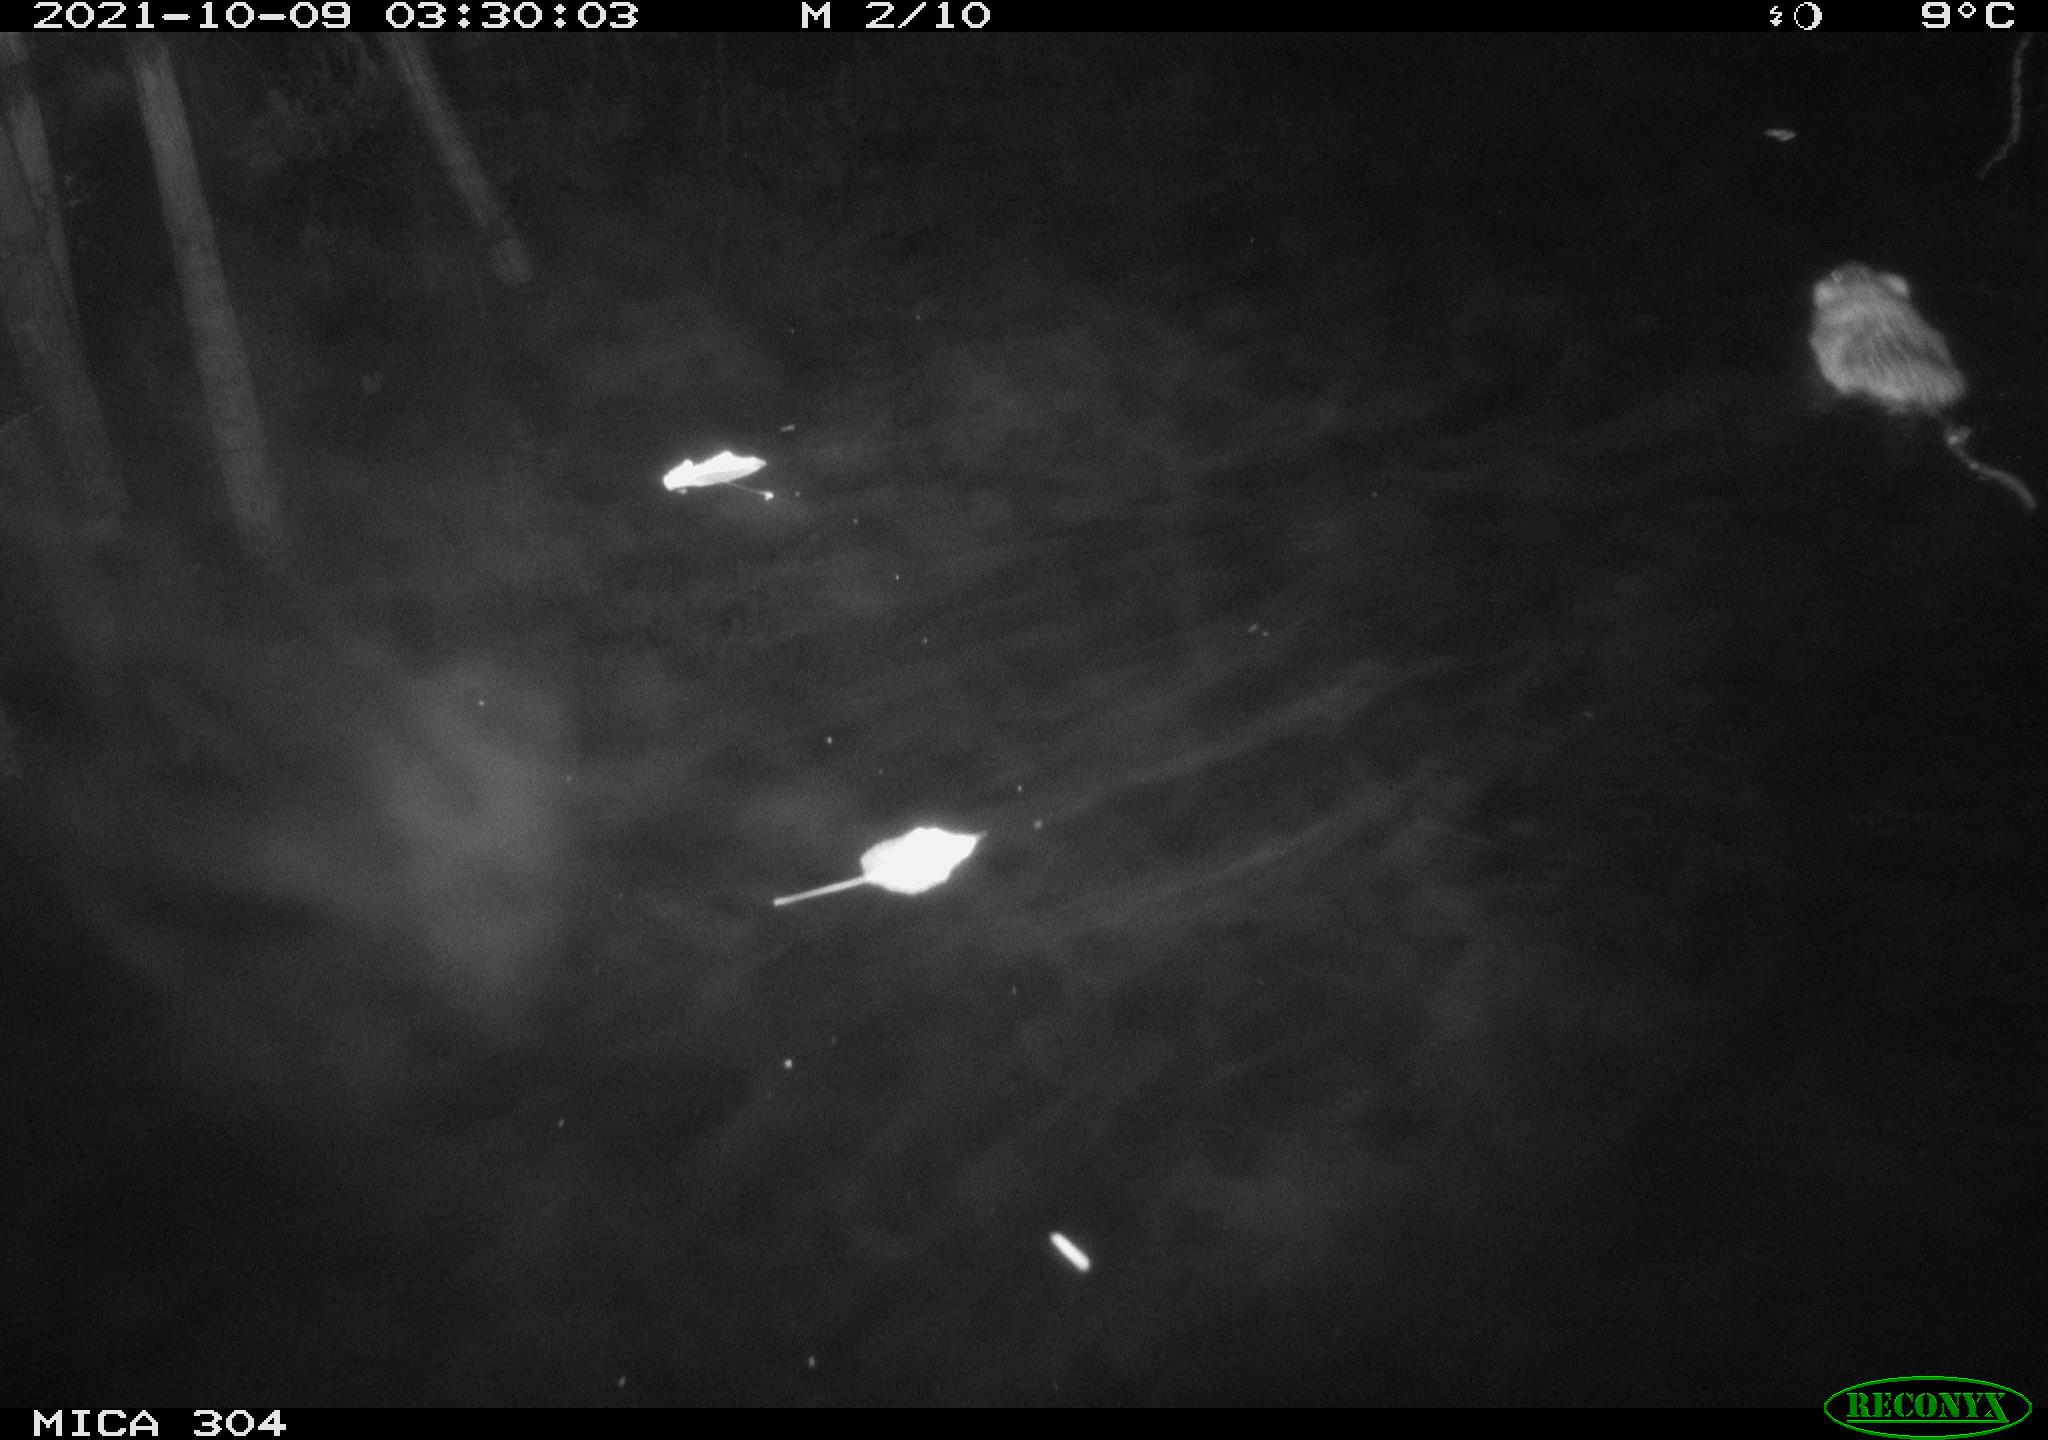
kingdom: Animalia
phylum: Chordata
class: Mammalia
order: Rodentia
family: Cricetidae
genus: Ondatra
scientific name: Ondatra zibethicus
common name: Muskrat
